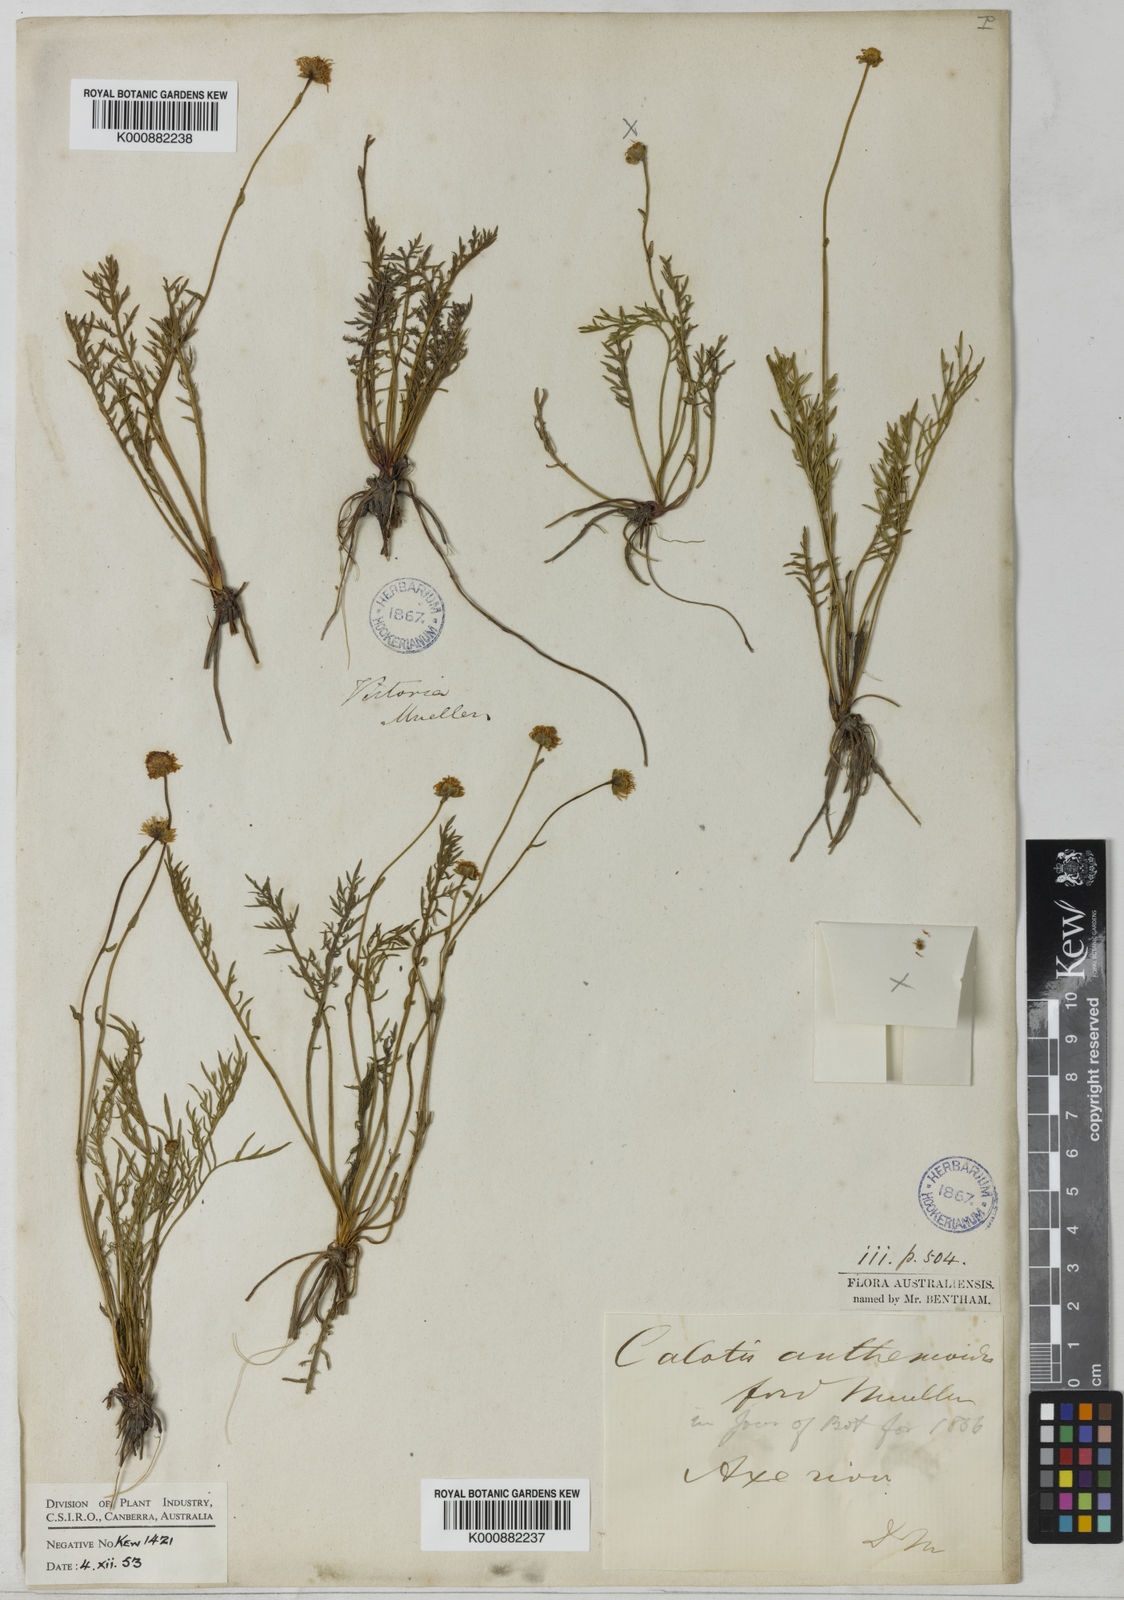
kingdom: Plantae
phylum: Tracheophyta
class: Magnoliopsida
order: Asterales
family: Asteraceae
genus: Calotis
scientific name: Calotis anthemoides
